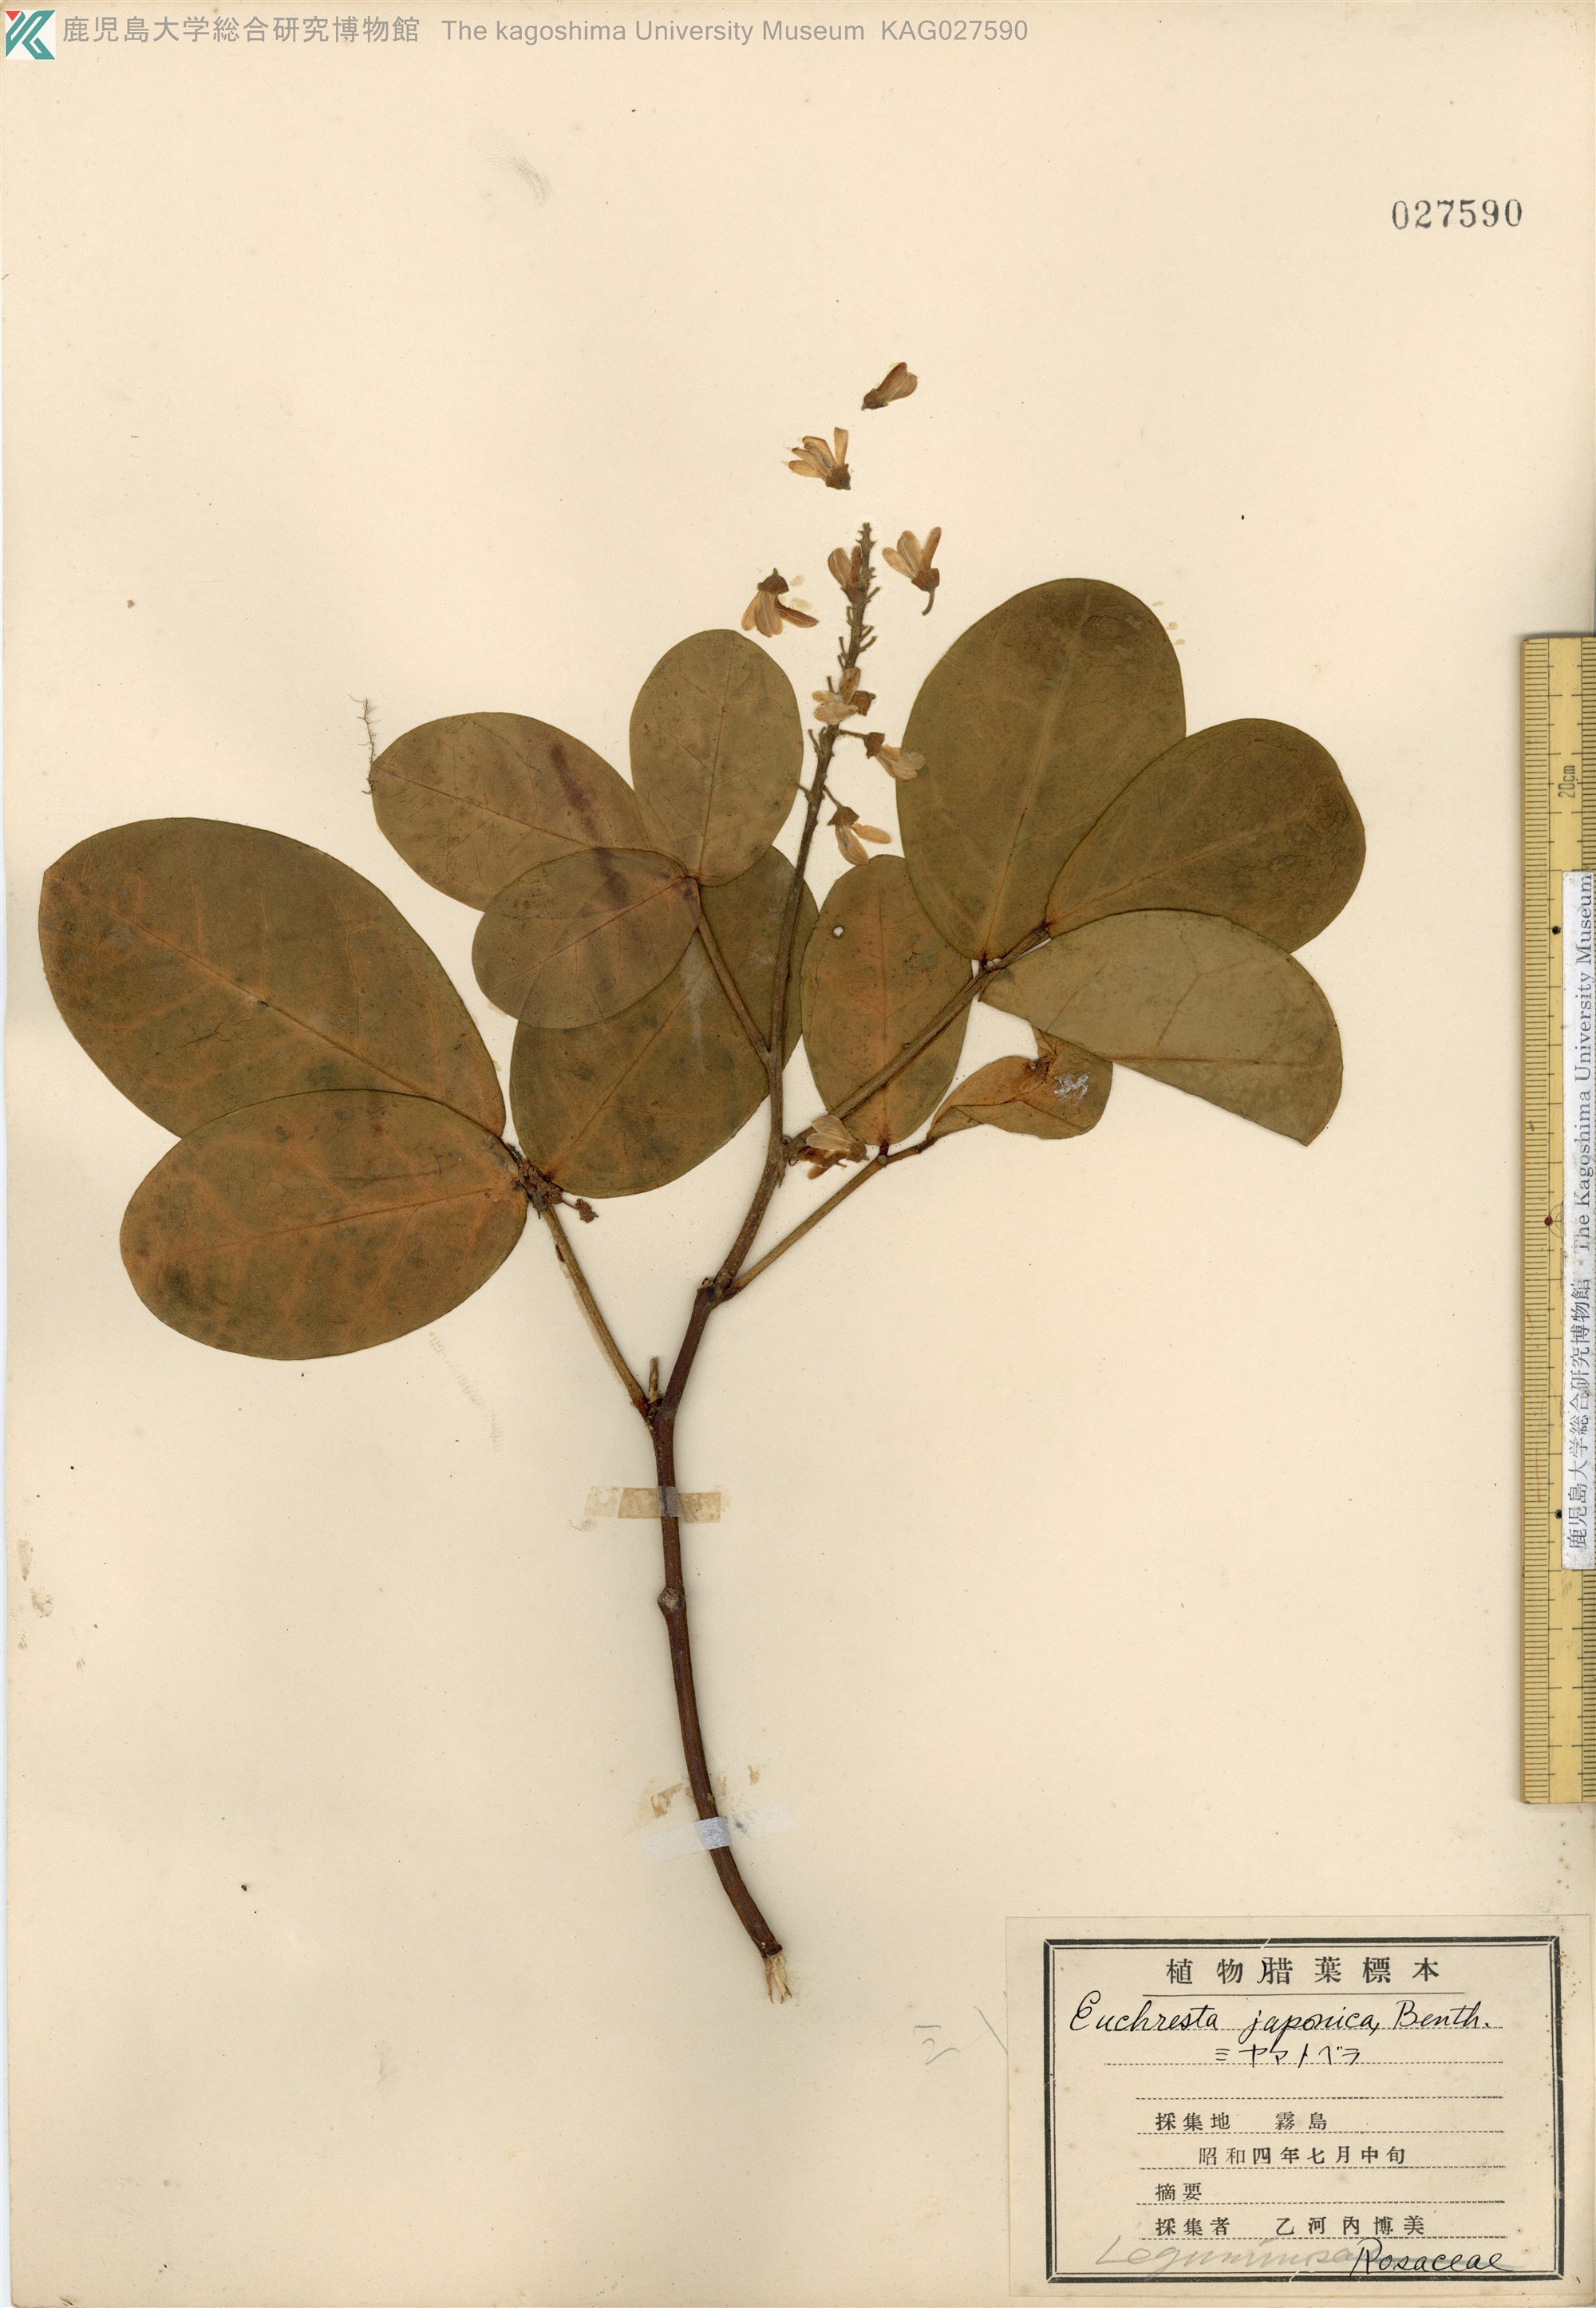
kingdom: Plantae
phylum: Tracheophyta
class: Magnoliopsida
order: Fabales
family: Fabaceae
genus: Euchresta
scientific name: Euchresta japonica
